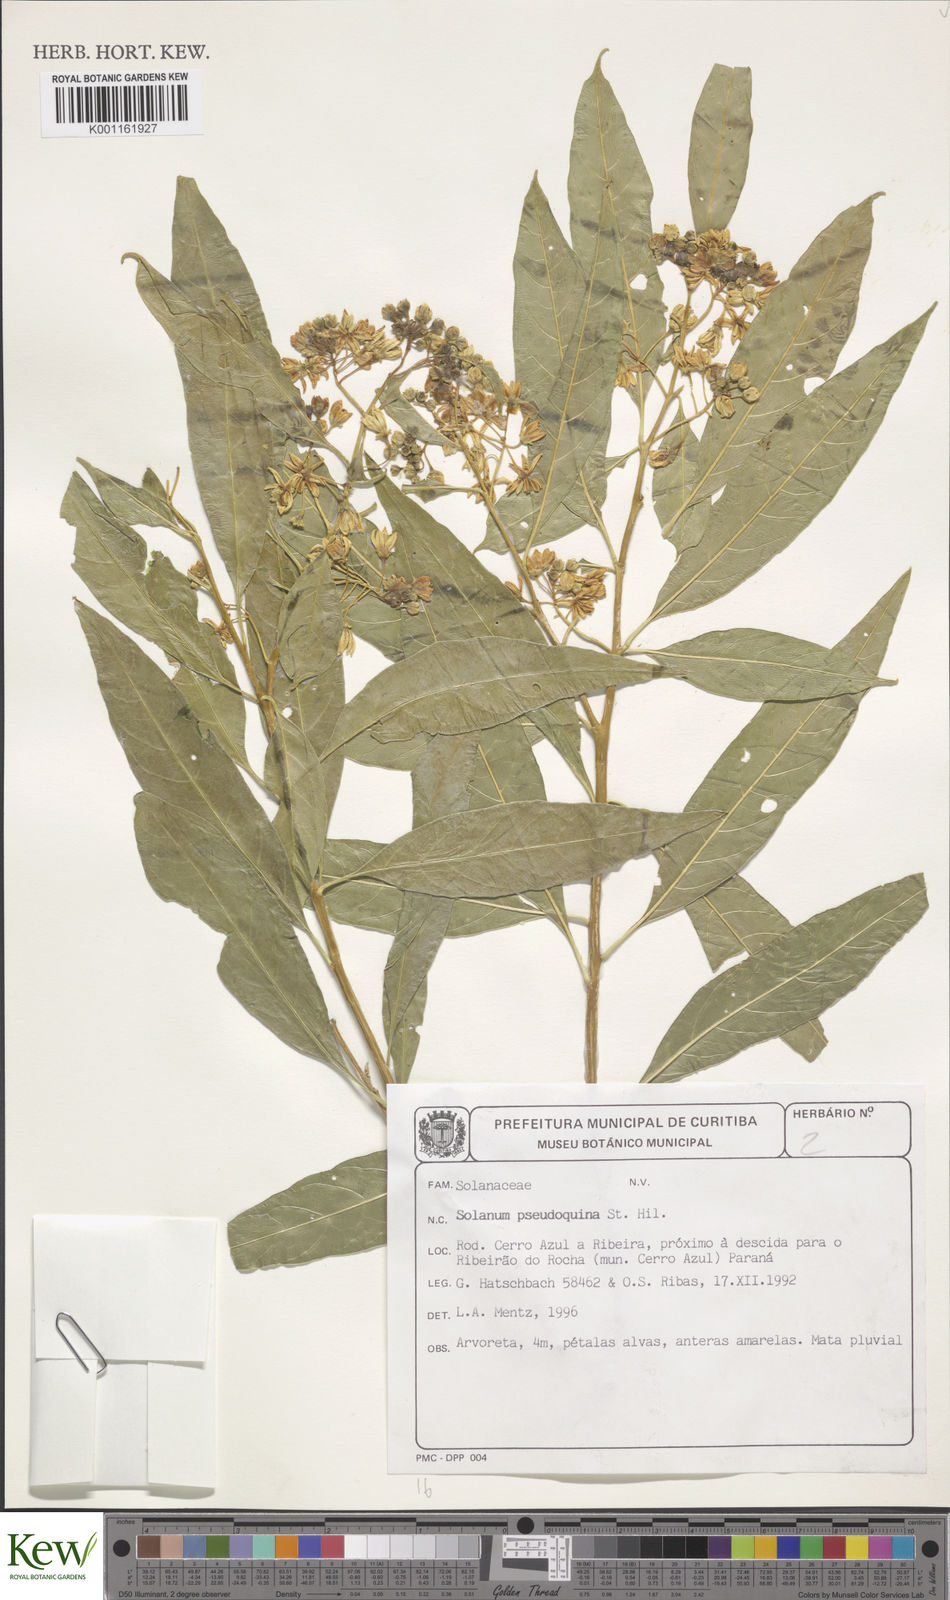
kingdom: Plantae
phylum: Tracheophyta
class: Magnoliopsida
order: Solanales
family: Solanaceae
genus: Solanum
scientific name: Solanum pseudoquina
